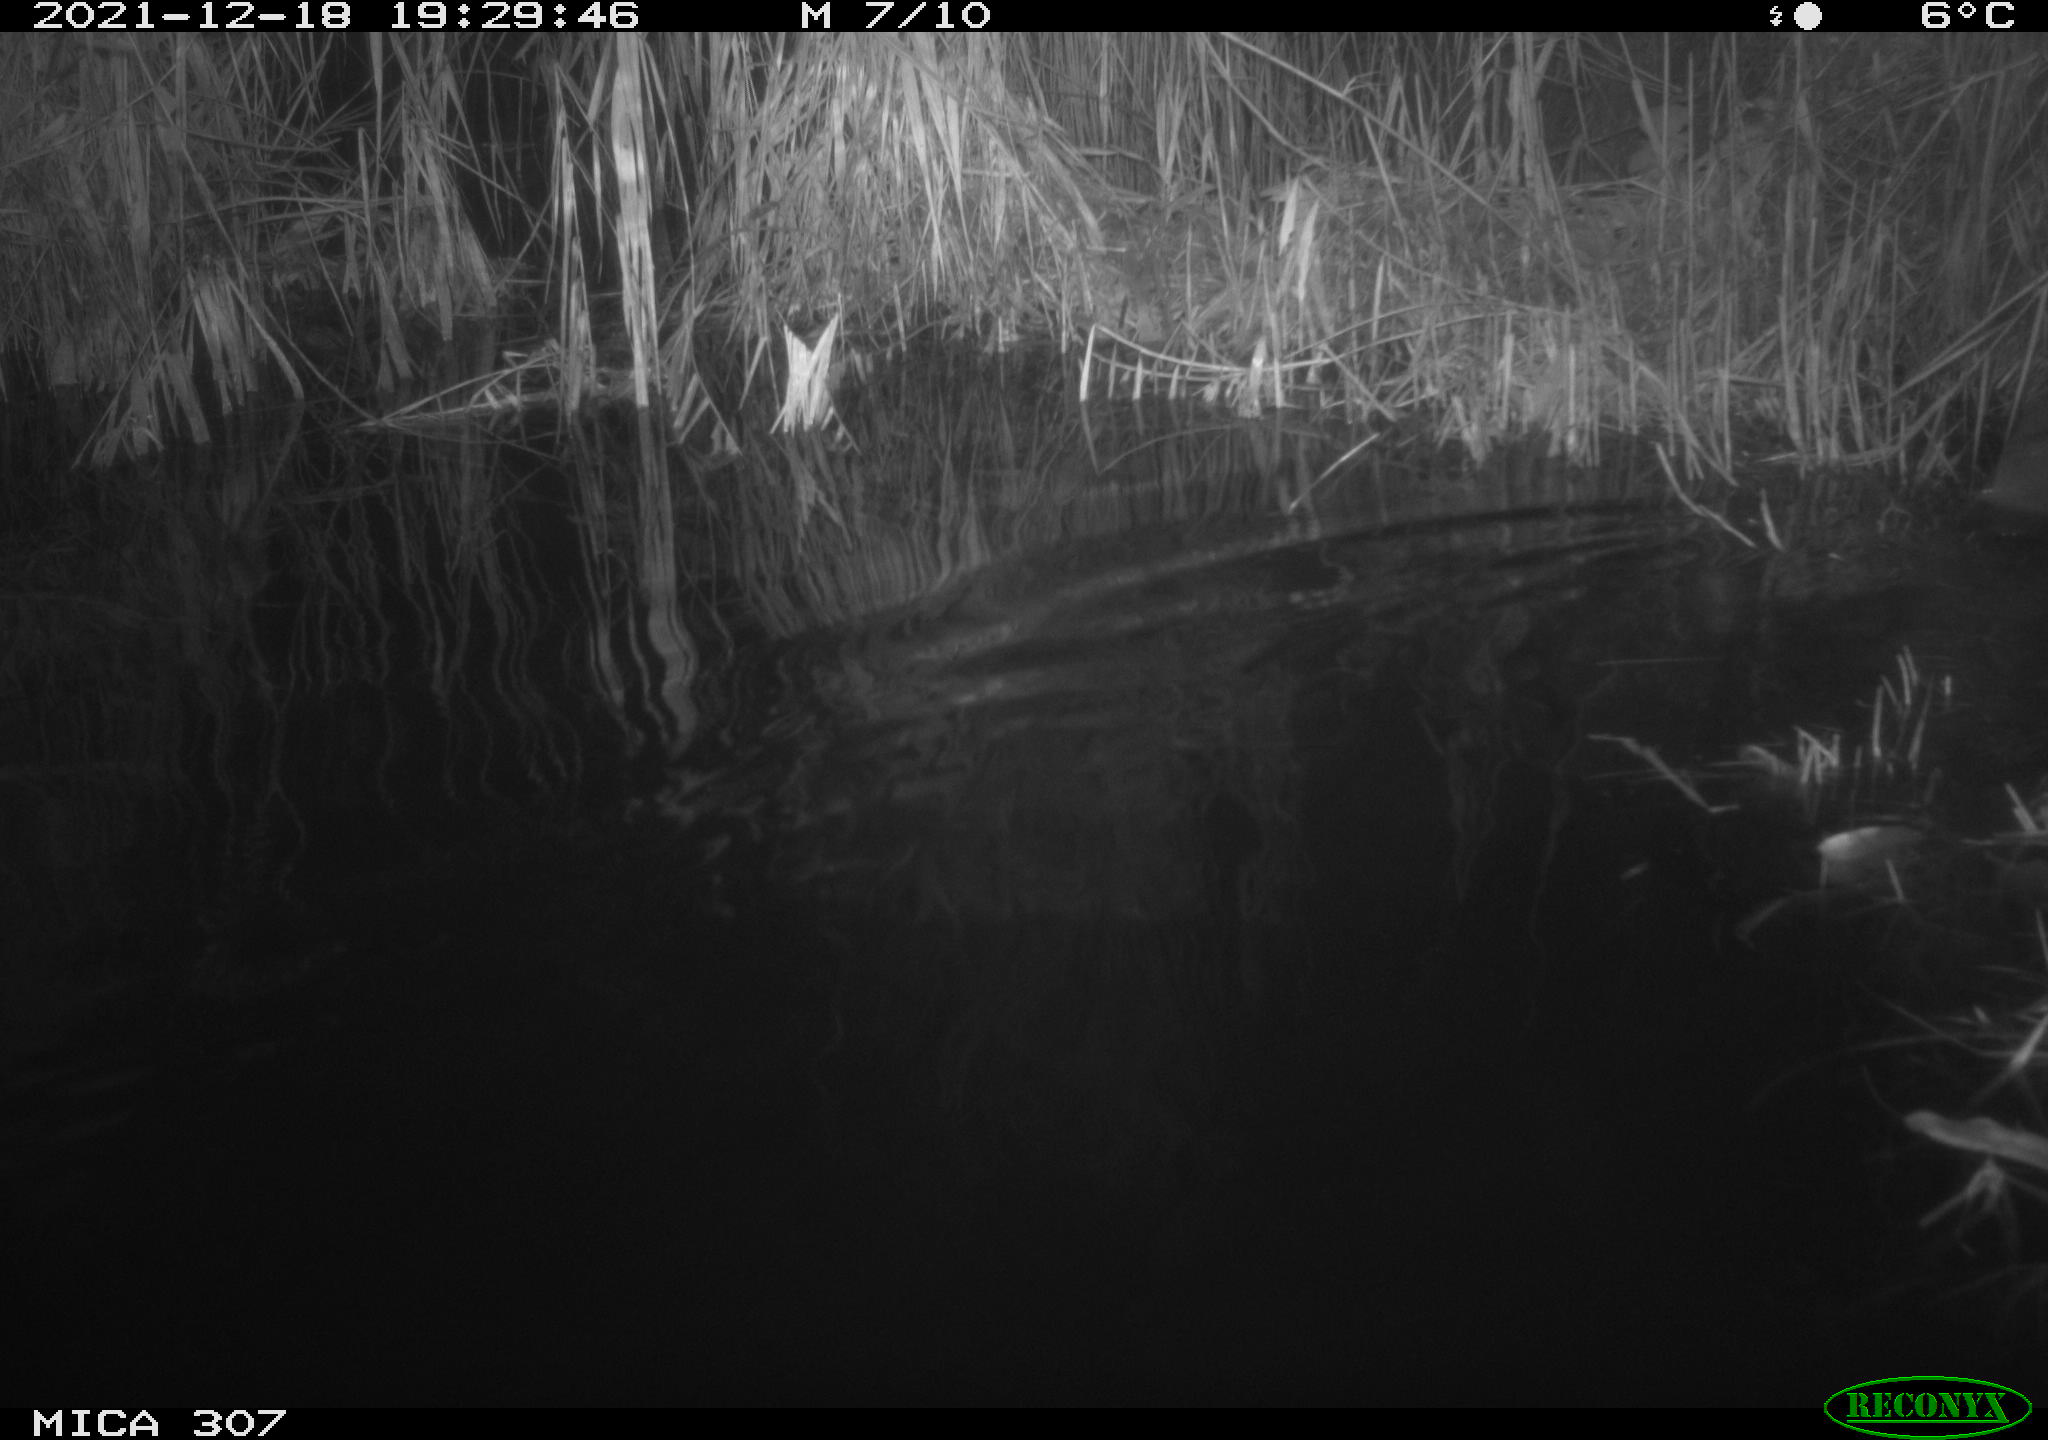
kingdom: Animalia
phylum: Chordata
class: Mammalia
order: Rodentia
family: Muridae
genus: Rattus
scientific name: Rattus norvegicus
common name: Brown rat
